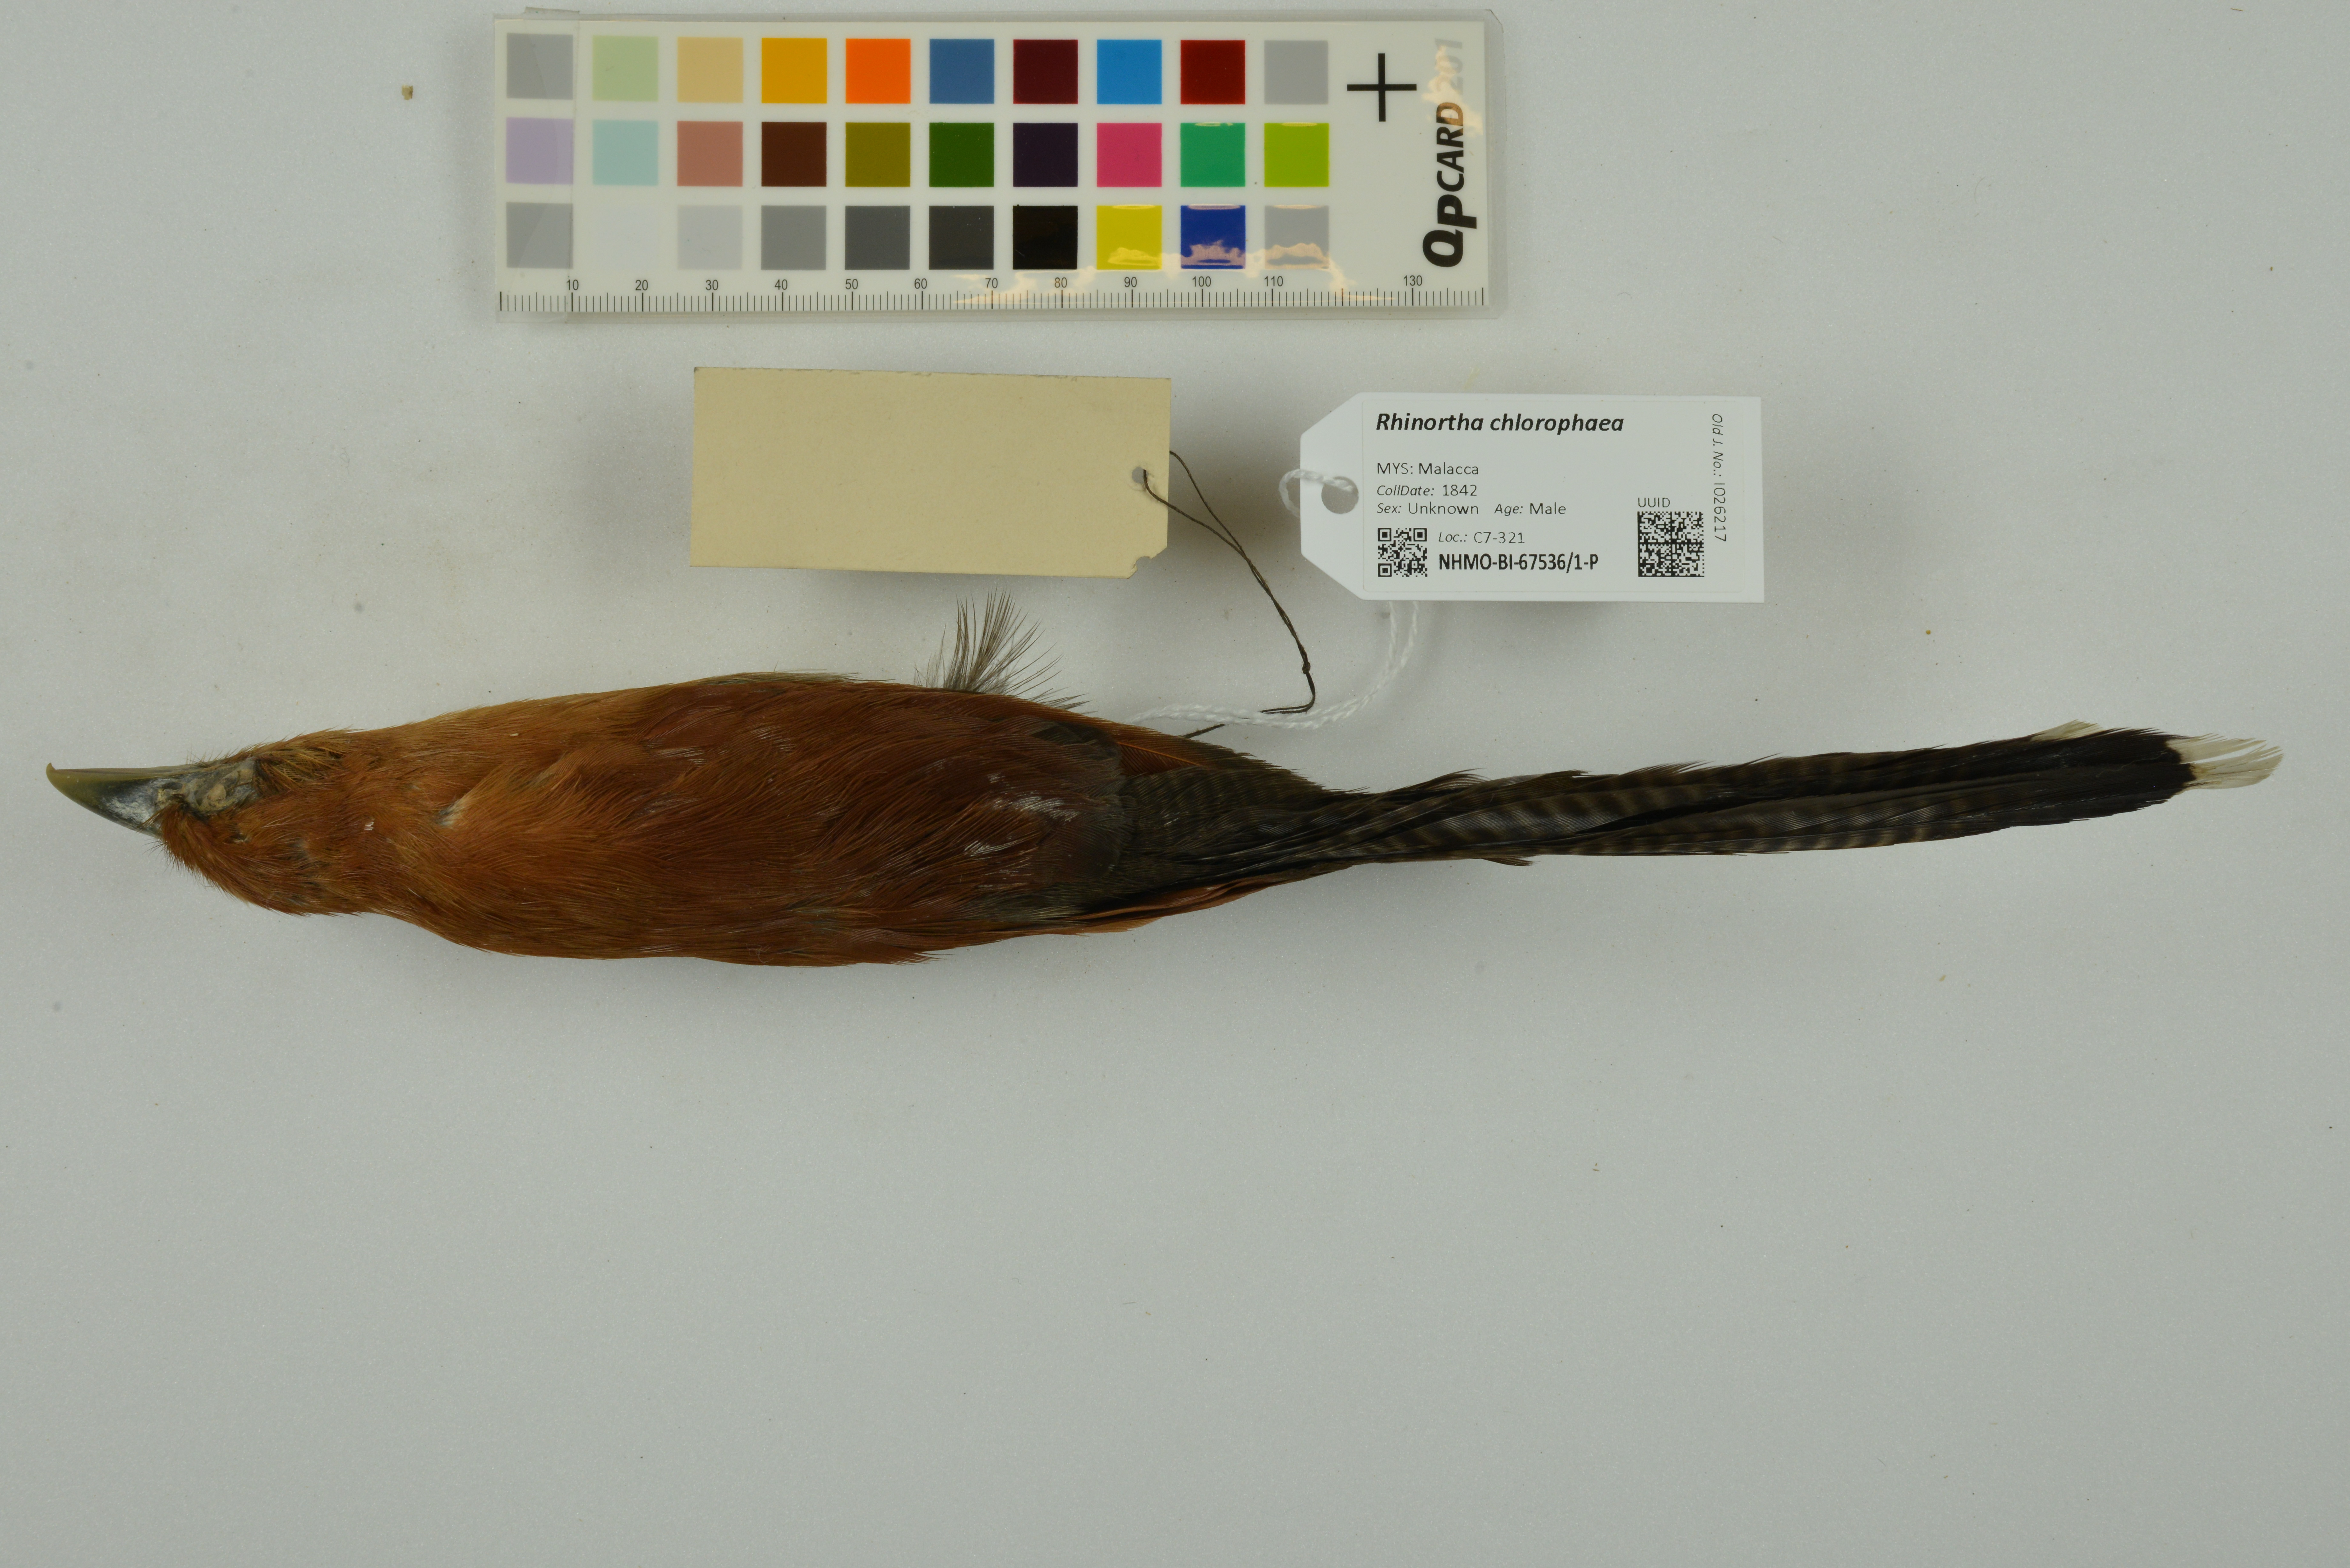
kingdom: Animalia
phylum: Chordata
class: Aves
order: Cuculiformes
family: Cuculidae
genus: Rhinortha
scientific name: Rhinortha chlorophaea
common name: Raffles's malkoha
